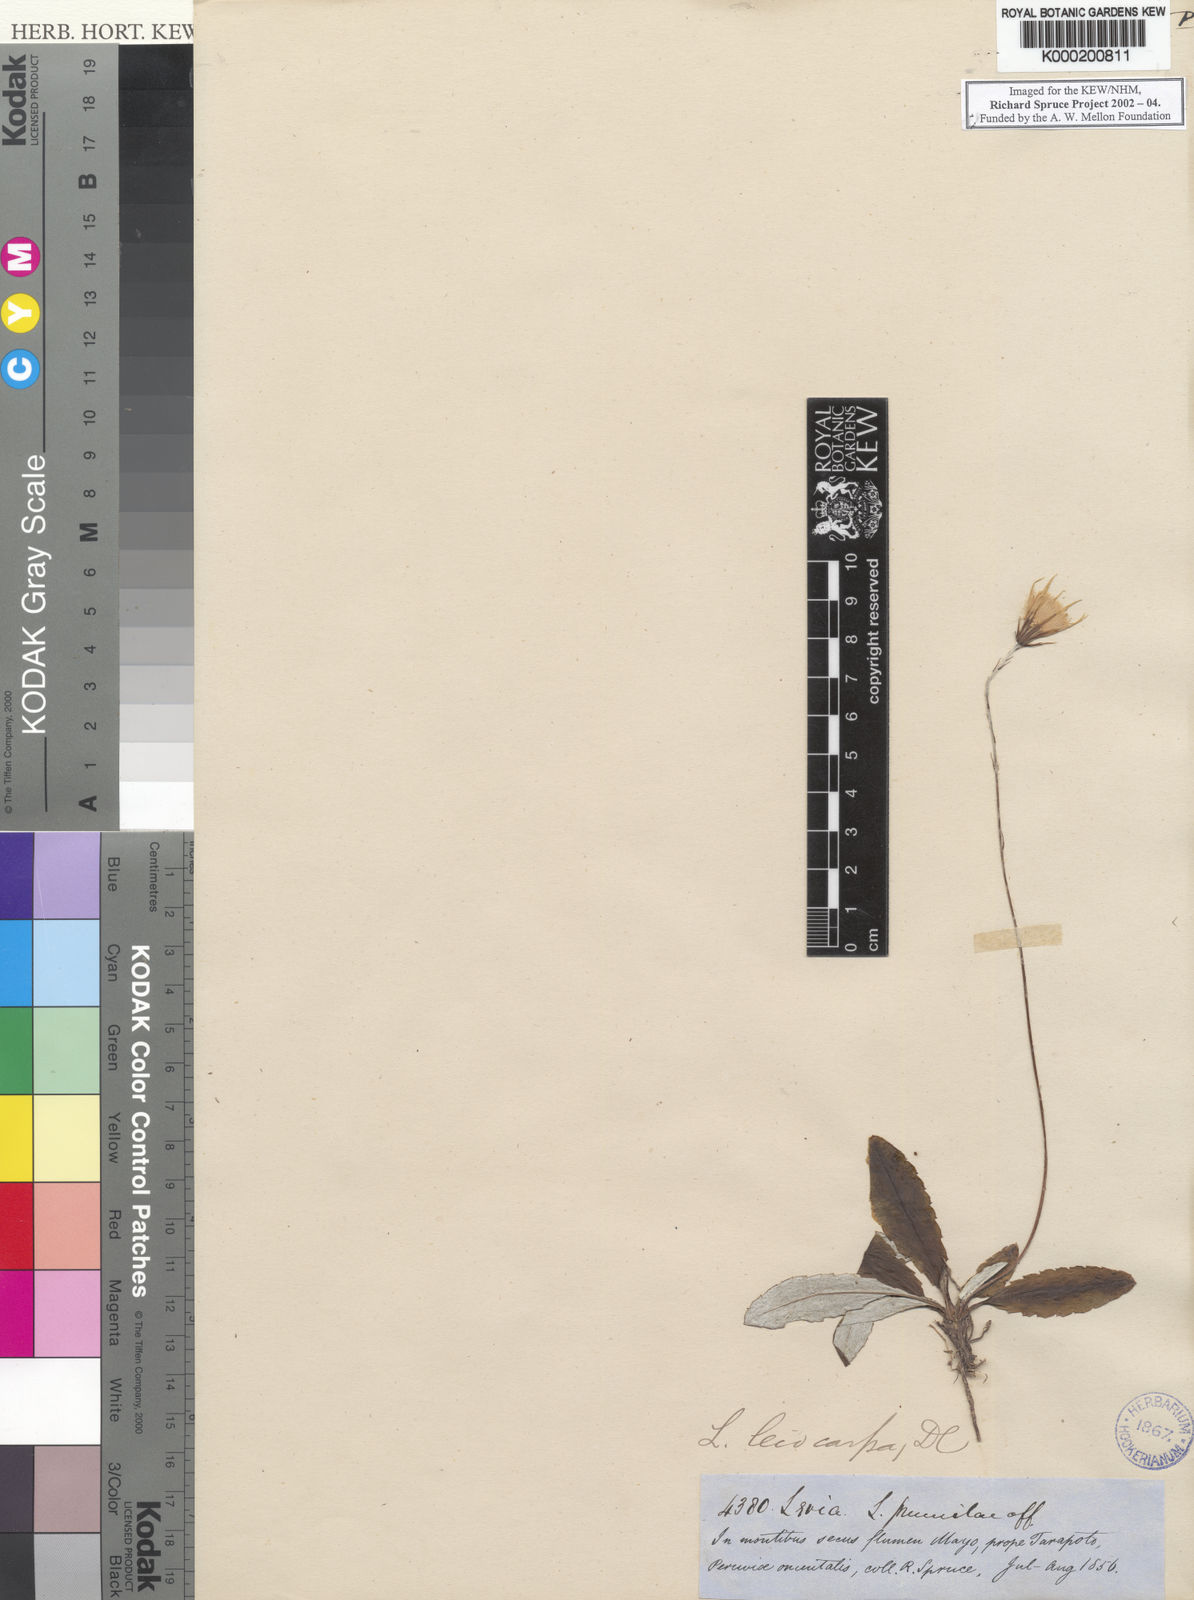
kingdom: Plantae
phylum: Tracheophyta
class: Magnoliopsida
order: Asterales
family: Asteraceae
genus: Chaptalia
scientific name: Chaptalia runcinata
